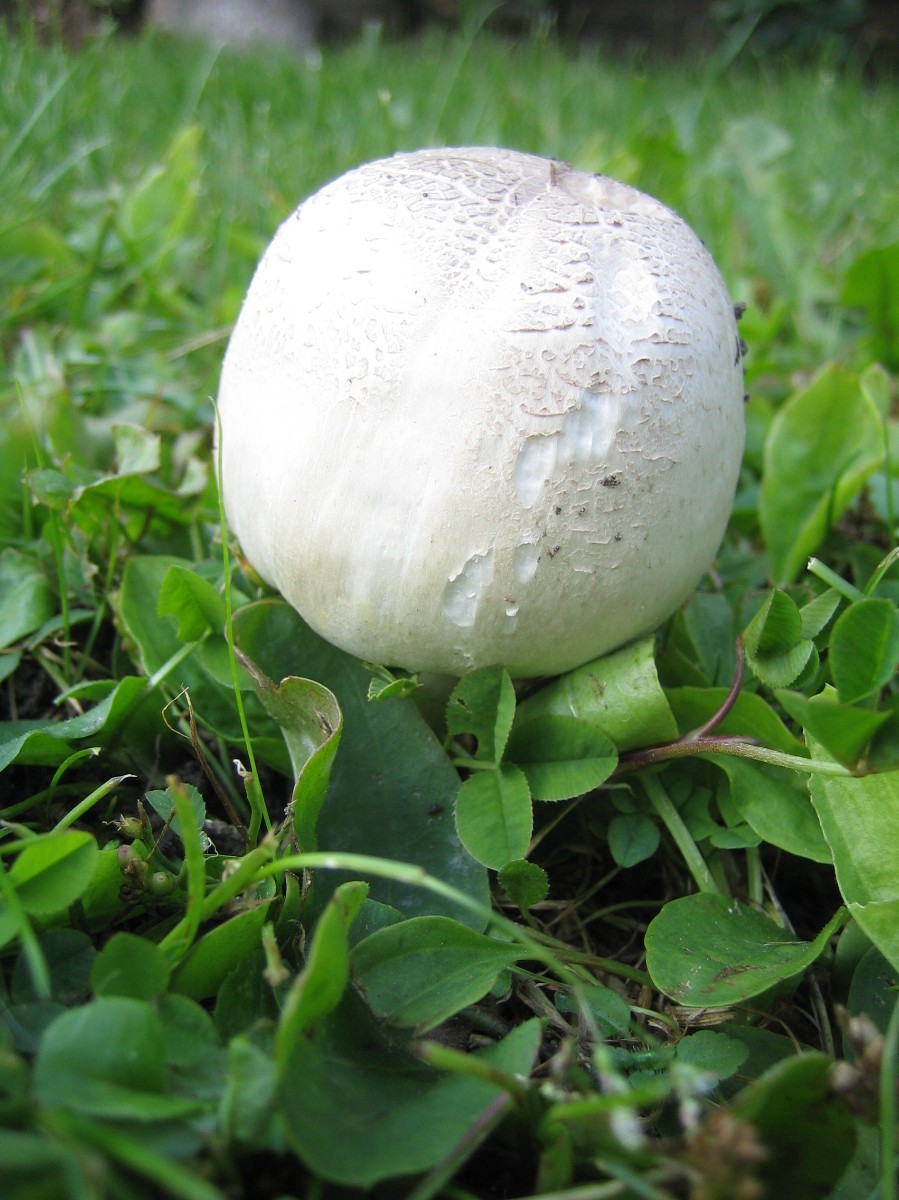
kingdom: Fungi
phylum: Basidiomycota
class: Agaricomycetes
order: Agaricales
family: Agaricaceae
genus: Agaricus
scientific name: Agaricus xanthodermus
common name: karbol-champignon
